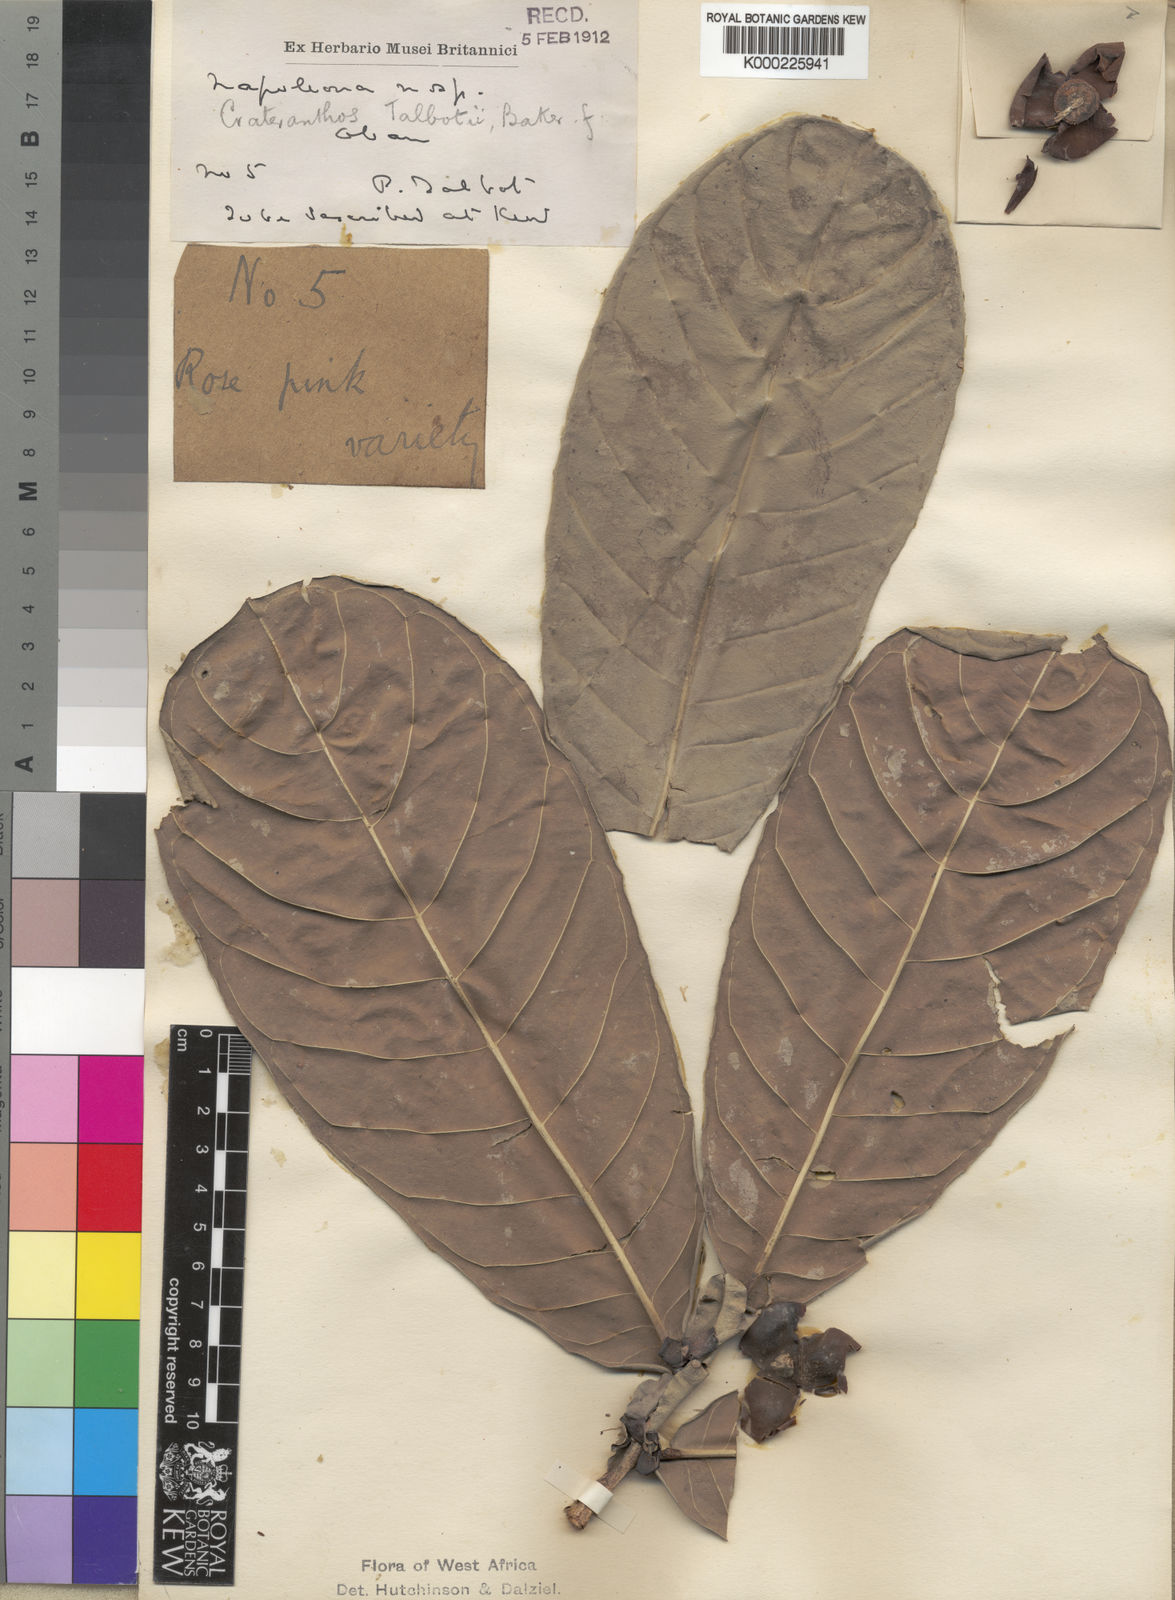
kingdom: Plantae
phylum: Tracheophyta
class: Magnoliopsida
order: Ericales
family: Lecythidaceae
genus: Crateranthus
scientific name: Crateranthus talbotii
